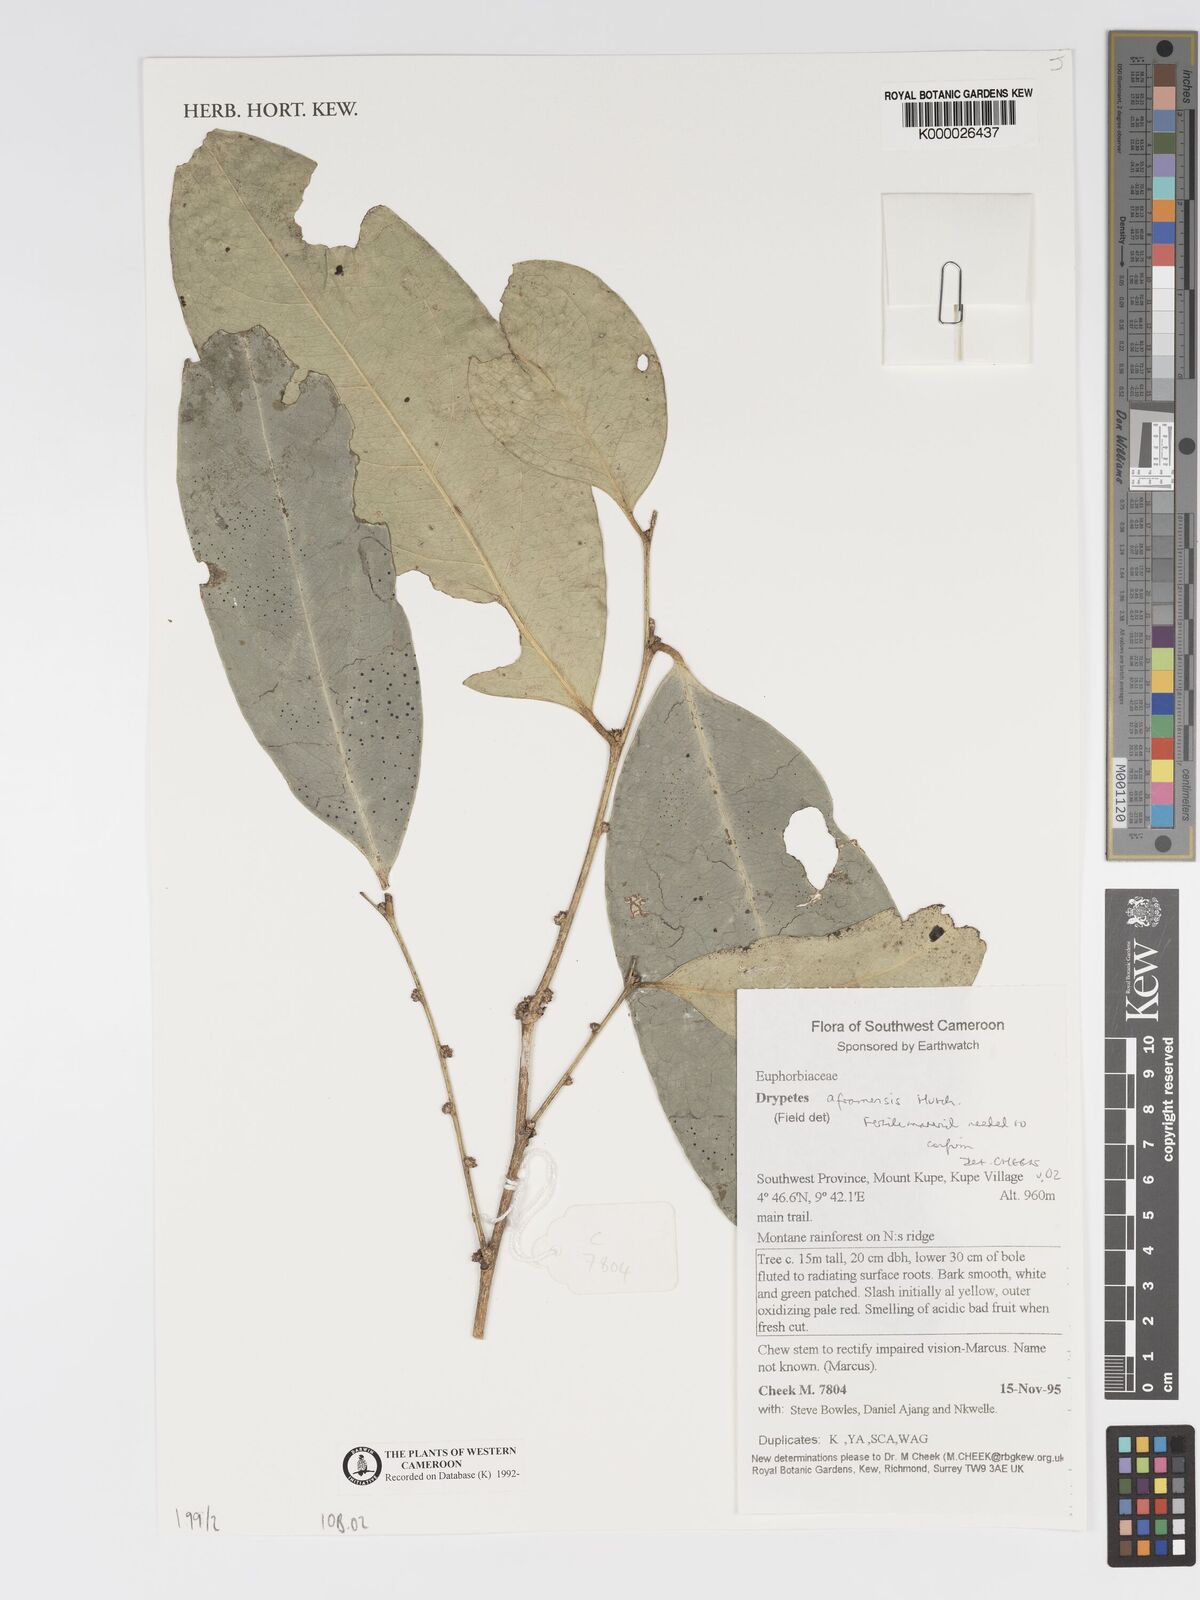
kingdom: Plantae
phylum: Tracheophyta
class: Magnoliopsida
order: Malpighiales
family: Putranjivaceae
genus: Drypetes
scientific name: Drypetes aframensis
